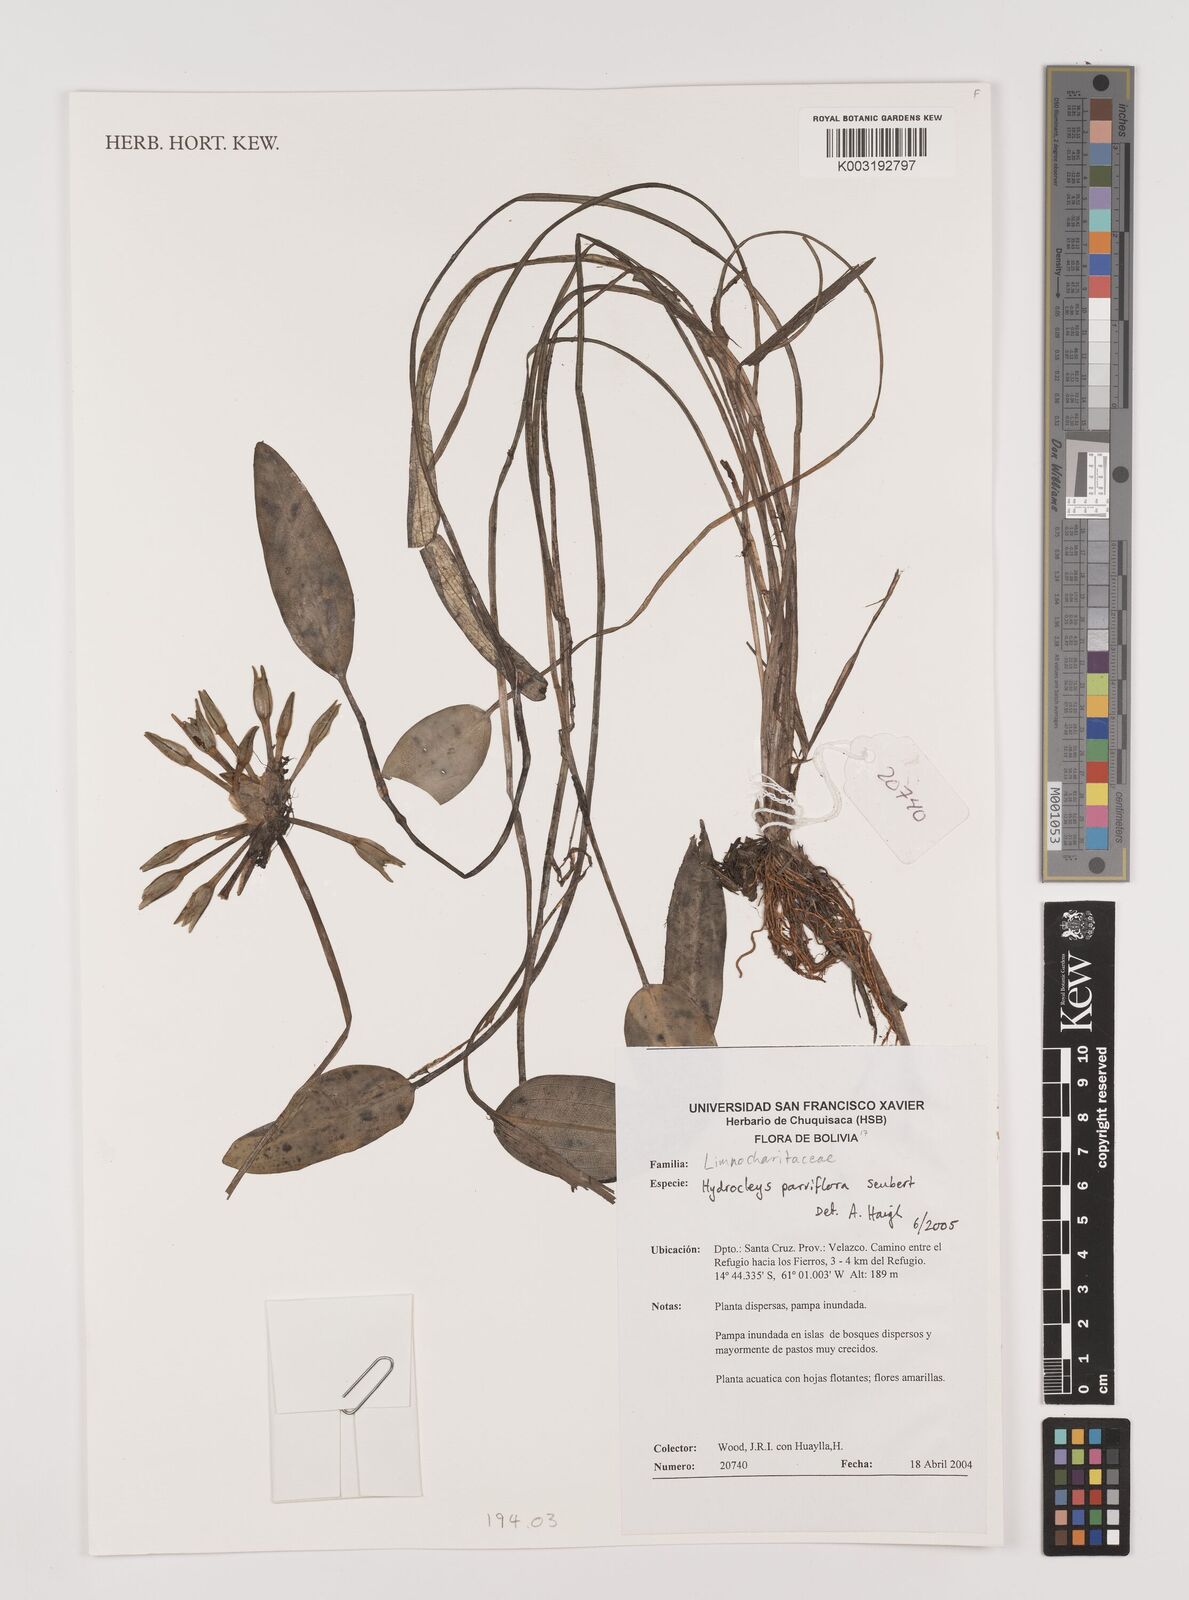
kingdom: Plantae
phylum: Tracheophyta
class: Liliopsida
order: Alismatales
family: Alismataceae
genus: Hydrocleys
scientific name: Hydrocleys parviflora
